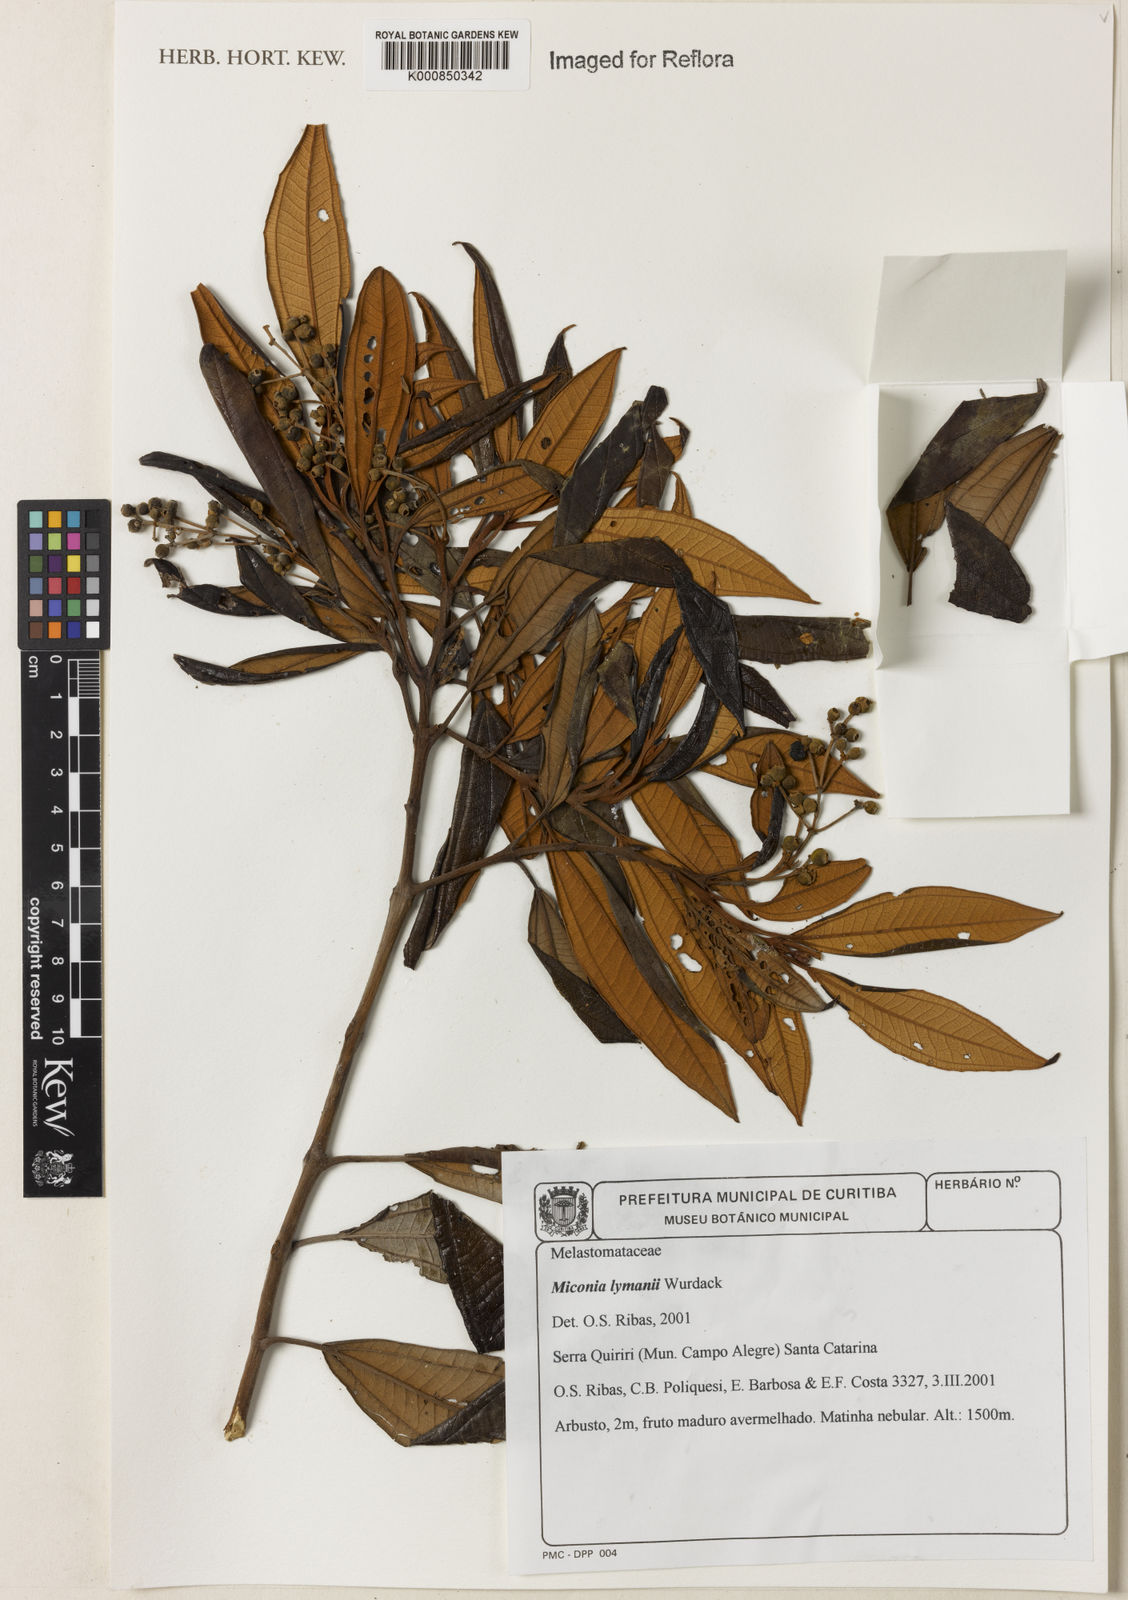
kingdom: Plantae
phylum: Tracheophyta
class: Magnoliopsida
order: Myrtales
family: Melastomataceae
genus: Miconia
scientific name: Miconia lymanii
